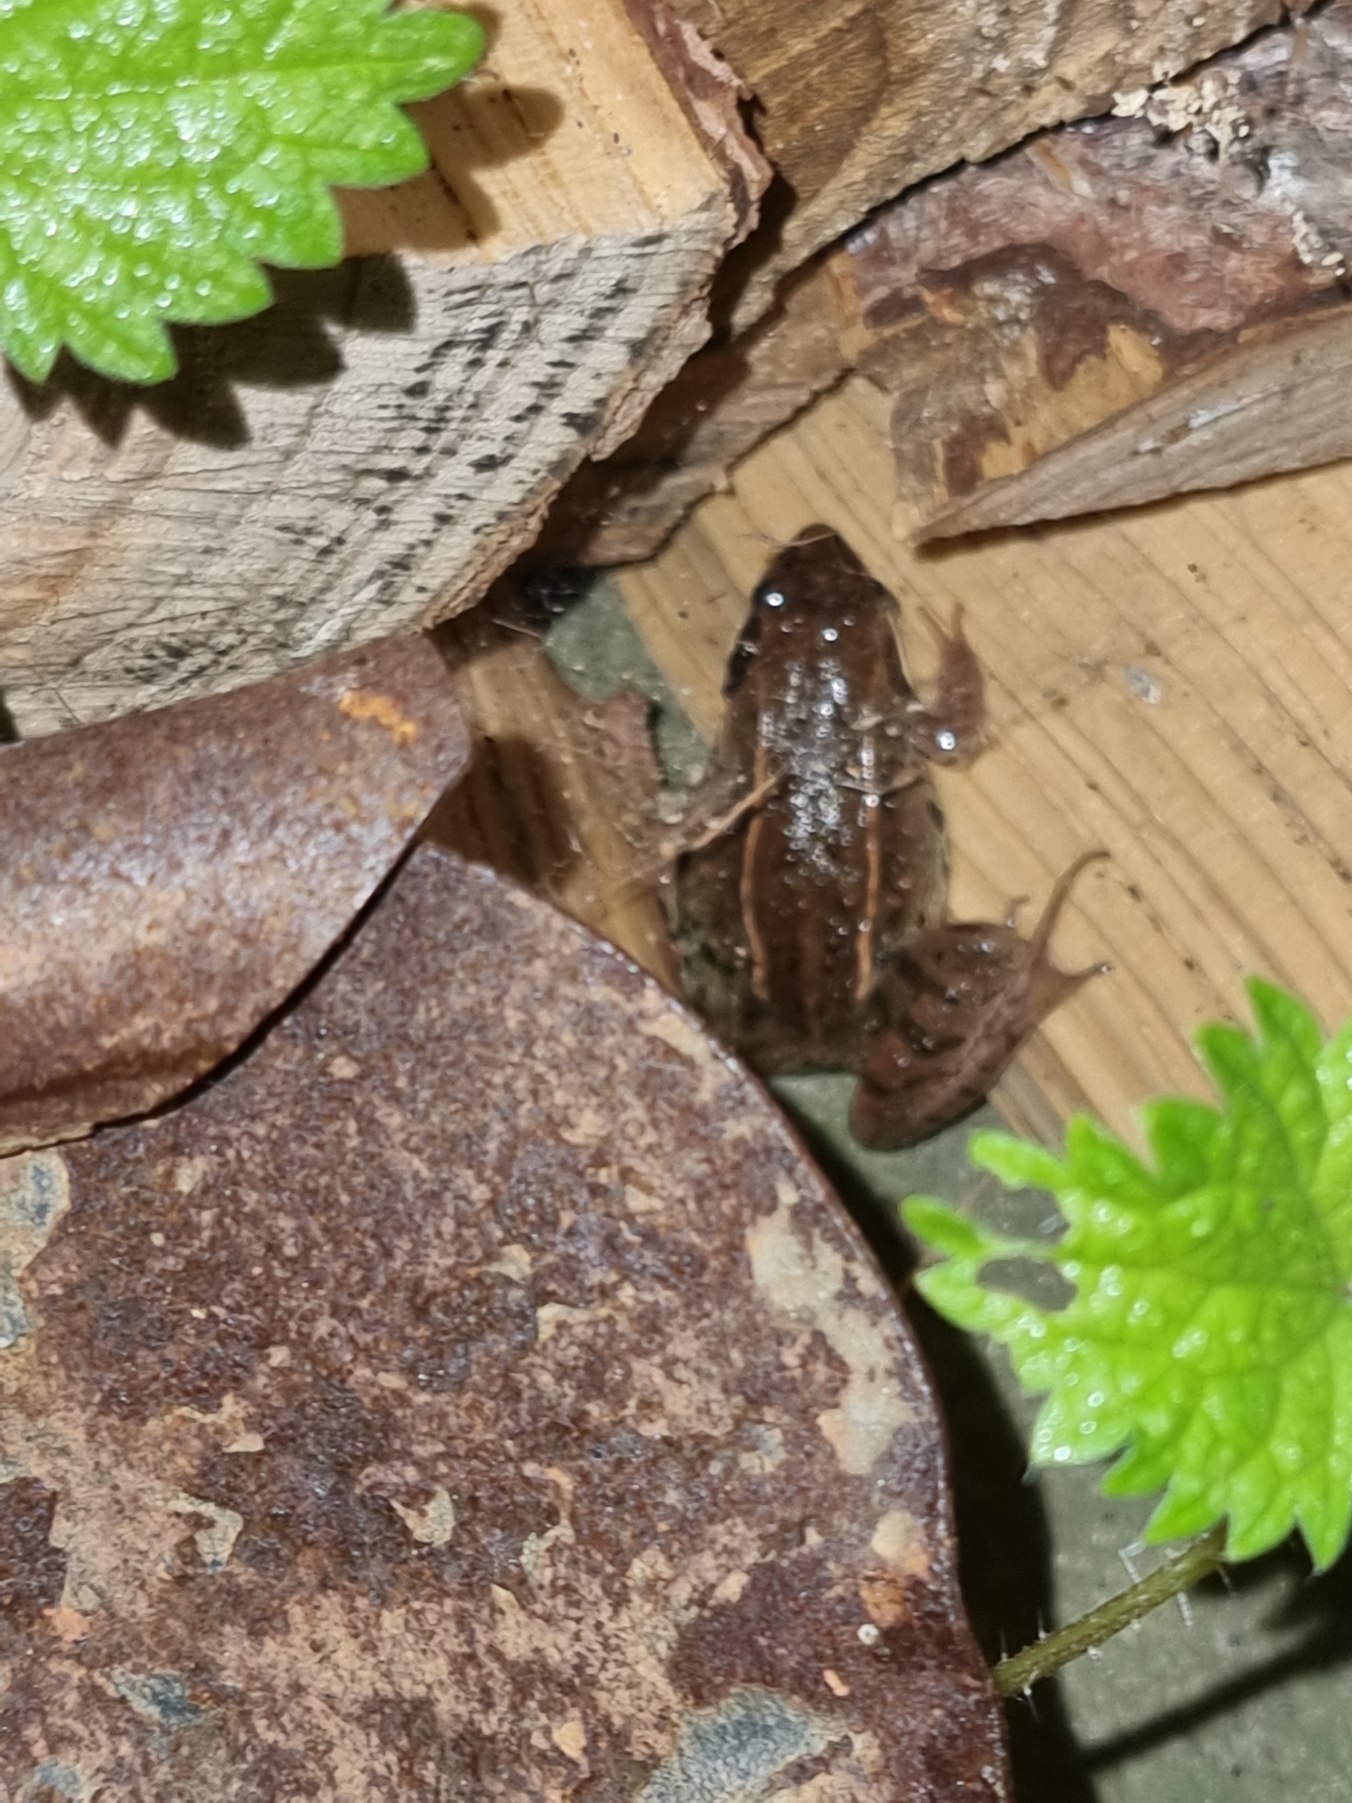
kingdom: Animalia
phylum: Chordata
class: Amphibia
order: Anura
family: Ranidae
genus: Rana
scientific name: Rana arvalis
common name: Spidssnudet frø
